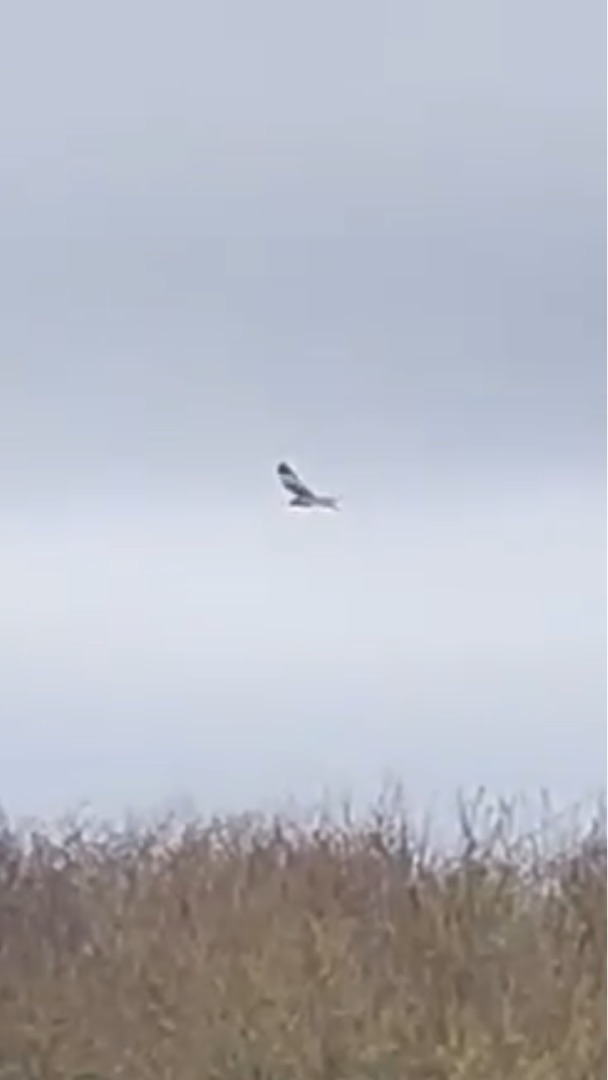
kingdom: Animalia
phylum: Chordata
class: Aves
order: Accipitriformes
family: Accipitridae
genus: Circus
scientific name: Circus aeruginosus
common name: Rørhøg
